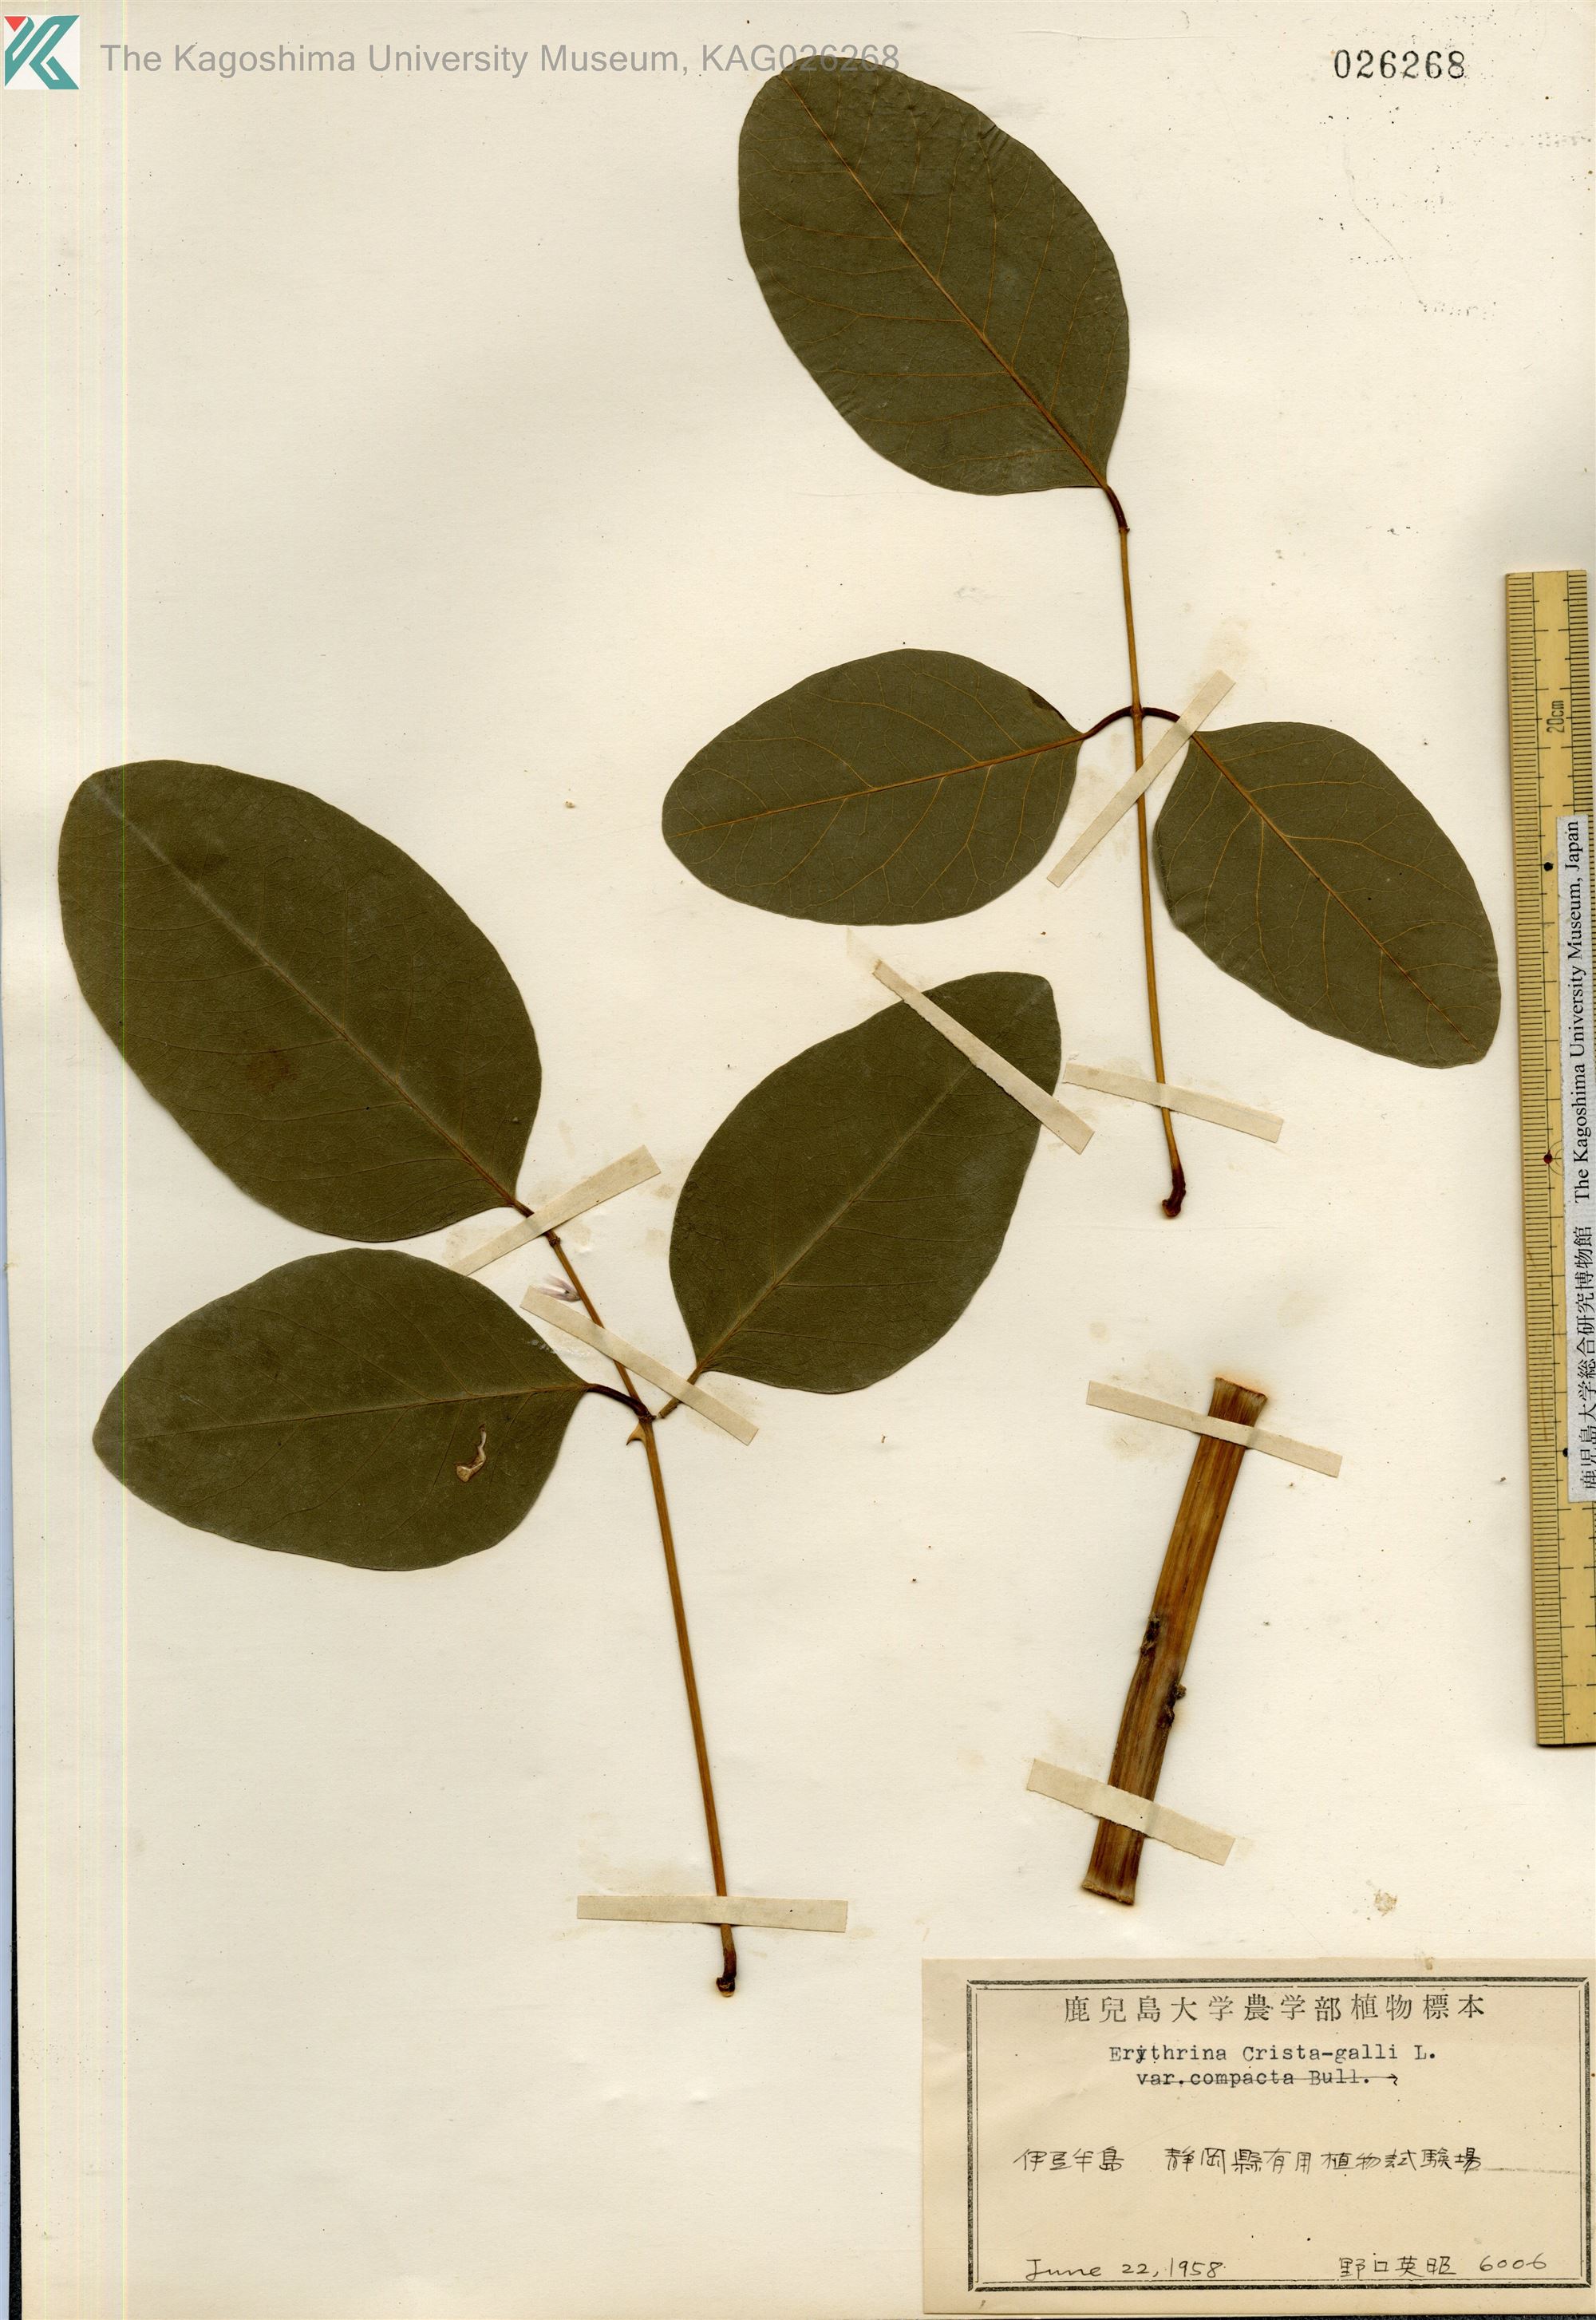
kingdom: Plantae
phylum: Tracheophyta
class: Magnoliopsida
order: Fabales
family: Fabaceae
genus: Erythrina
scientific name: Erythrina crista-galli
